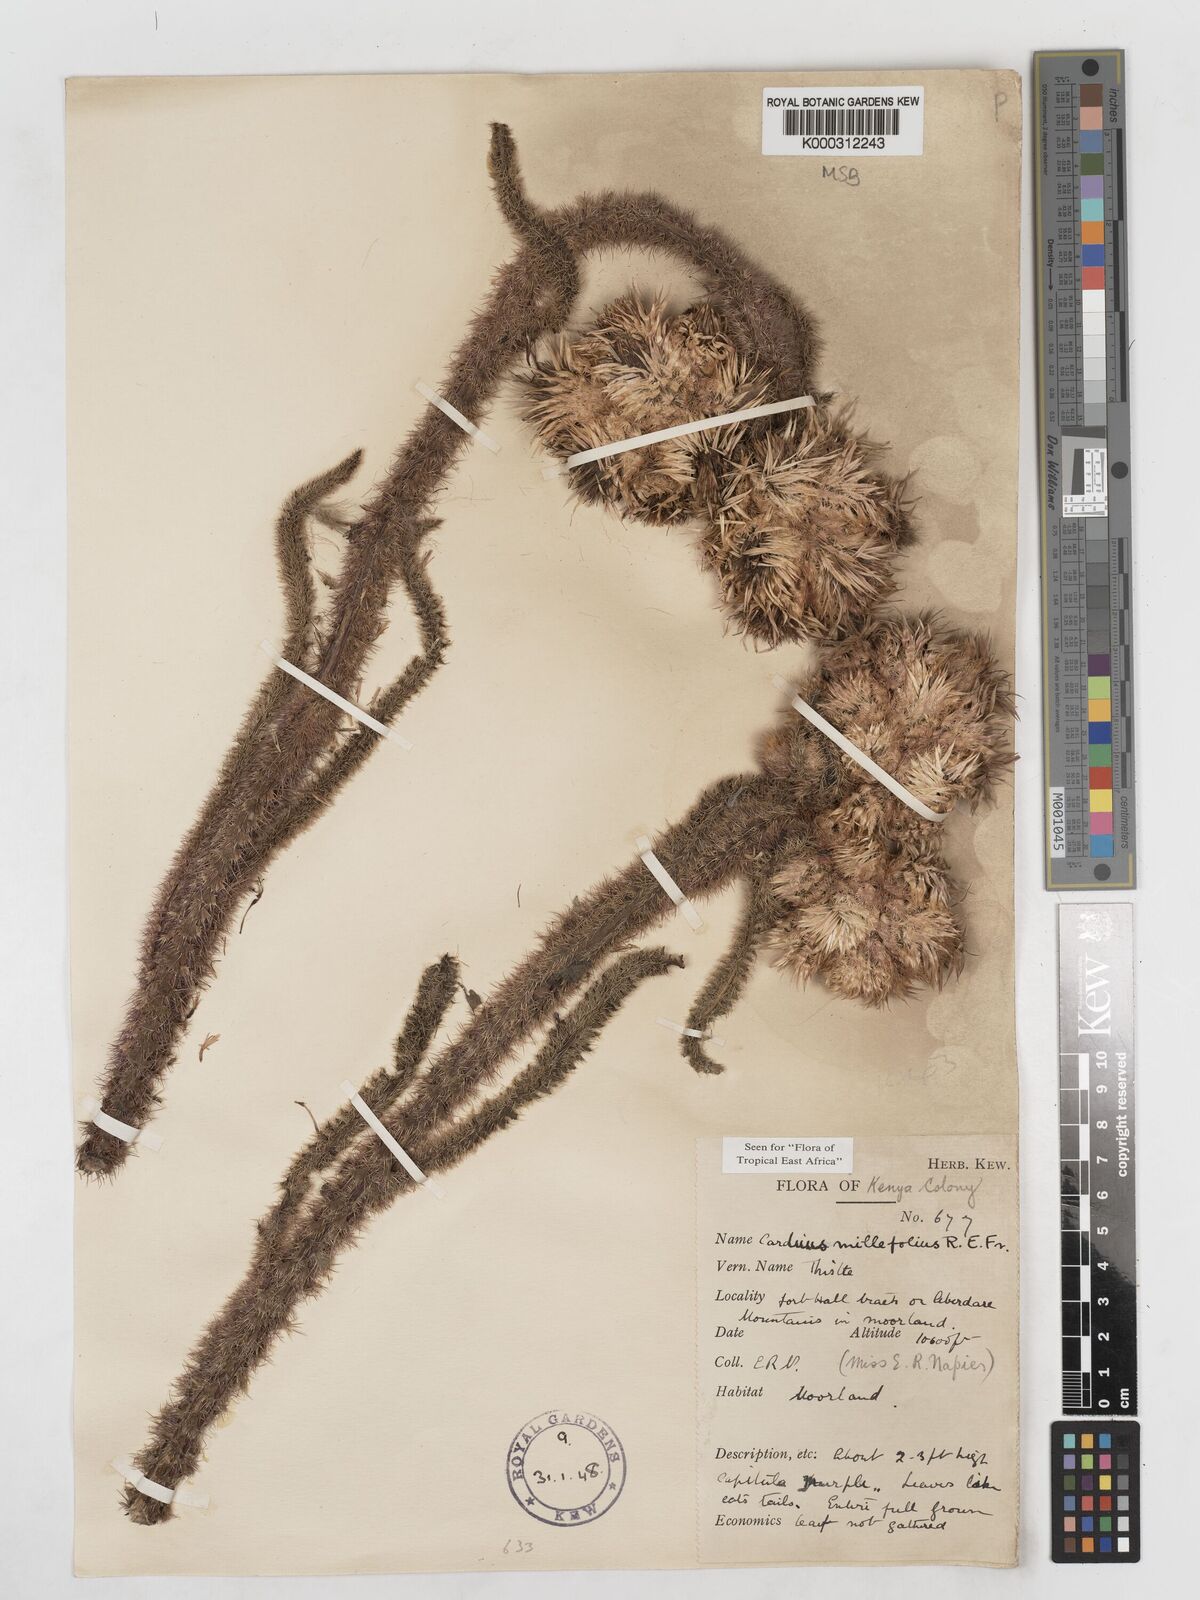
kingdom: Plantae
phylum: Tracheophyta
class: Magnoliopsida
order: Asterales
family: Asteraceae
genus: Carduus
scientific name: Carduus millefolius
